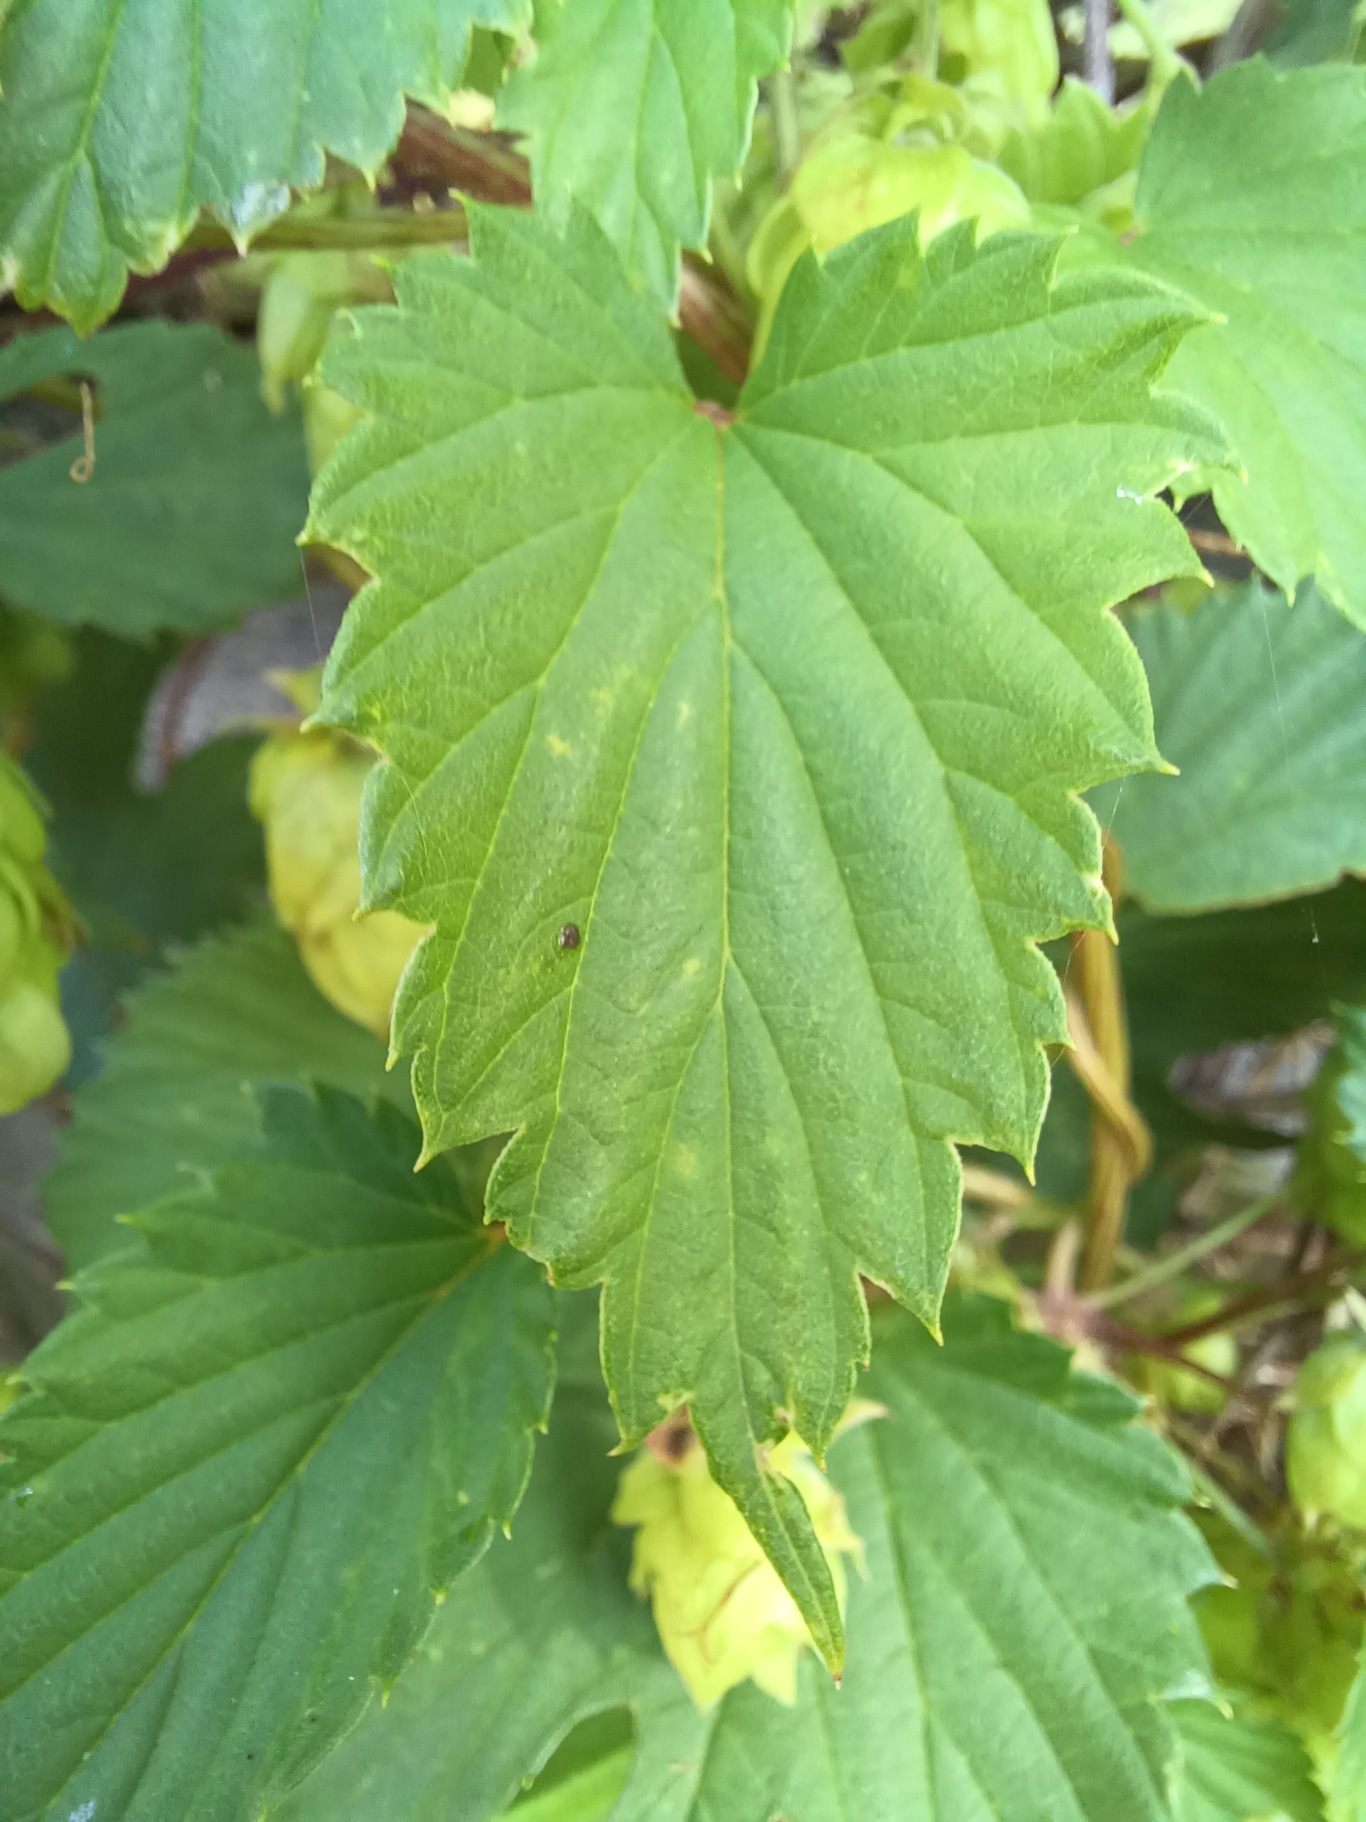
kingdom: Plantae
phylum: Tracheophyta
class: Magnoliopsida
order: Rosales
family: Cannabaceae
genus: Humulus
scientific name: Humulus lupulus
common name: Humle
